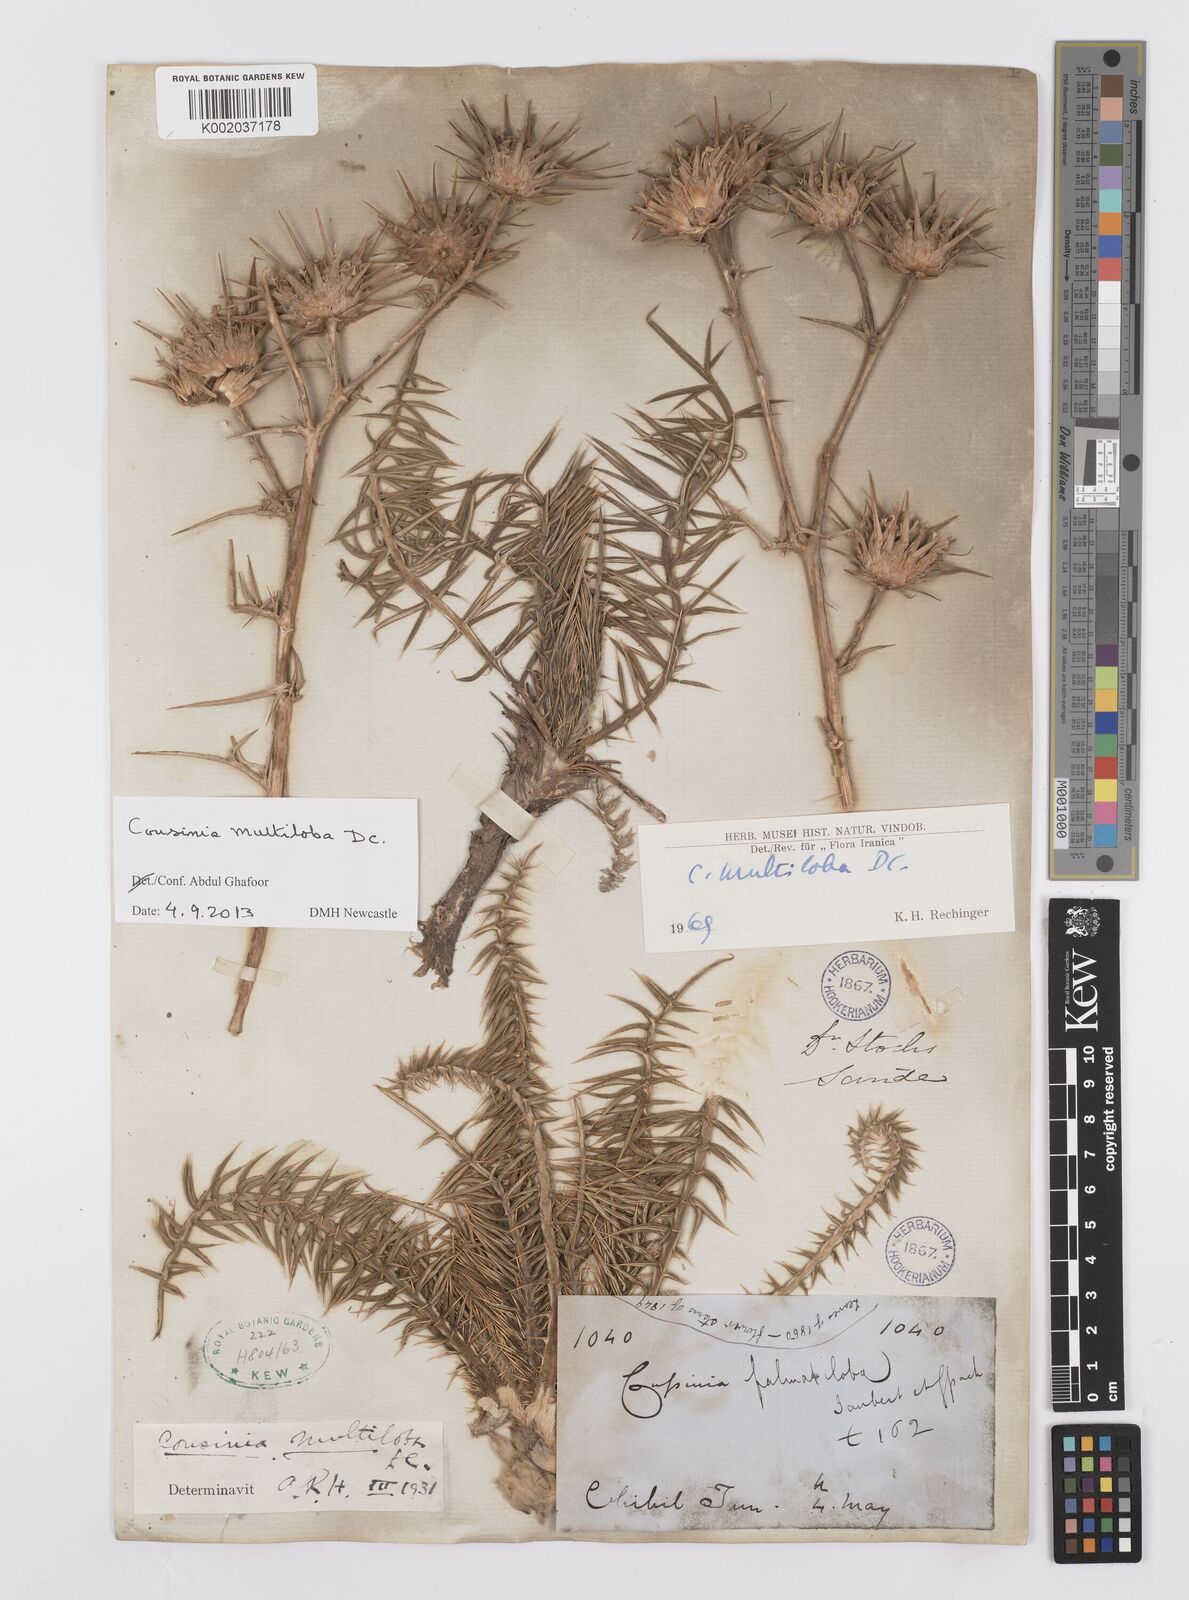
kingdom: Plantae
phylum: Tracheophyta
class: Magnoliopsida
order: Asterales
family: Asteraceae
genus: Cousinia
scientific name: Cousinia multiloba
